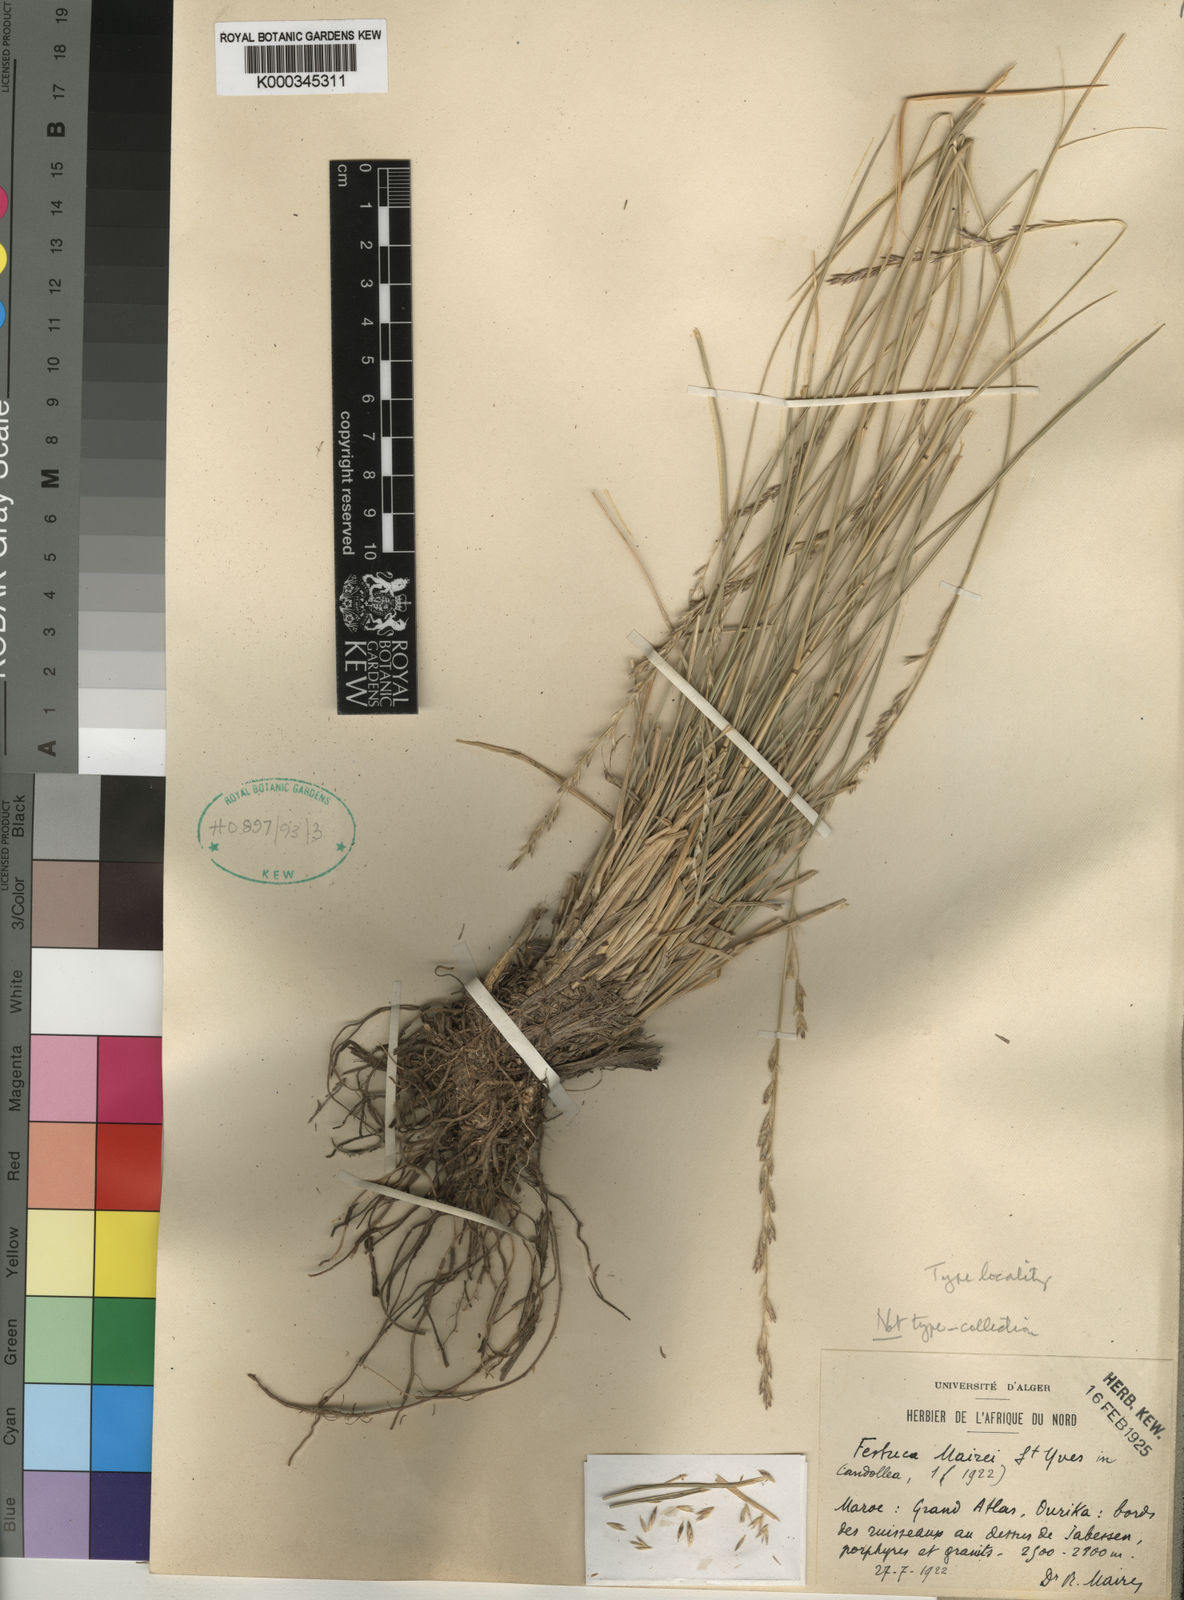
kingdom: Plantae
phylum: Tracheophyta
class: Liliopsida
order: Poales
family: Poaceae
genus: Lolium
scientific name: Lolium mairei
